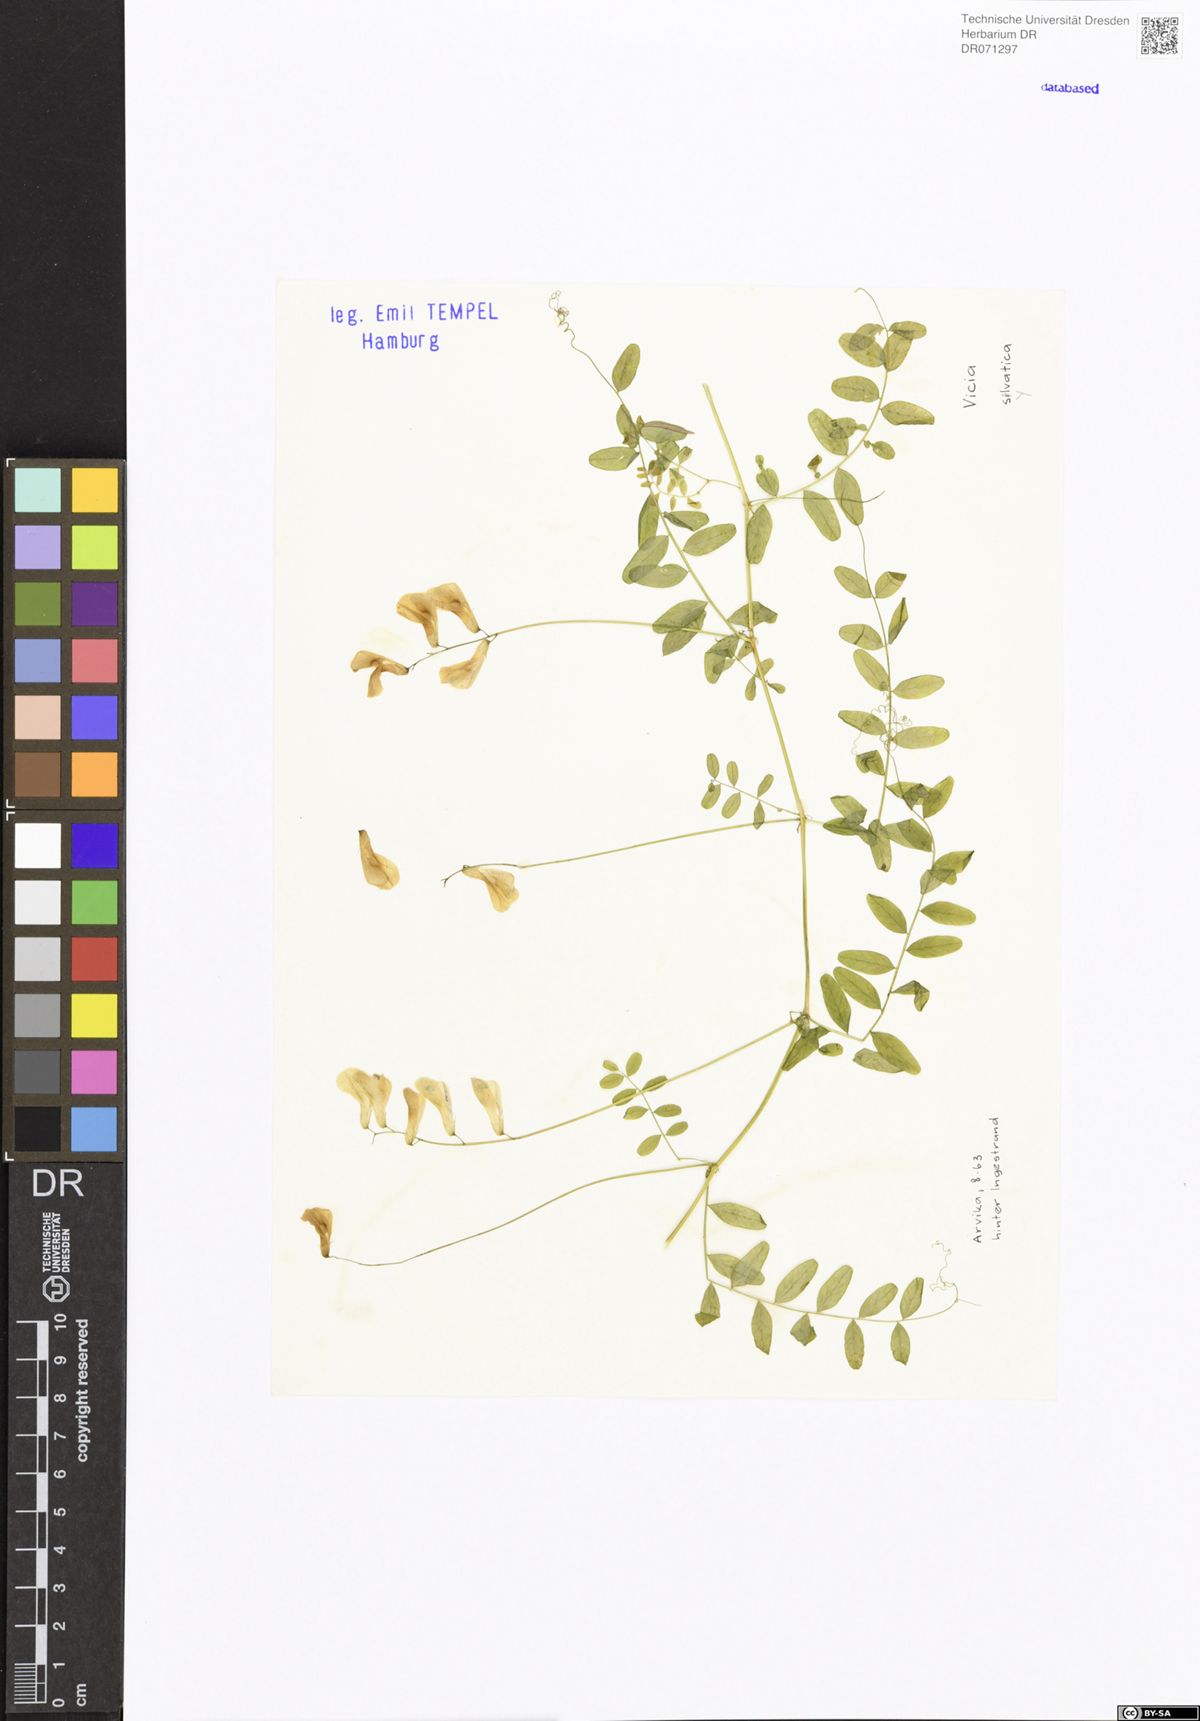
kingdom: Plantae
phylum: Tracheophyta
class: Magnoliopsida
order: Fabales
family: Fabaceae
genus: Vicia
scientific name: Vicia sylvatica
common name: Wood vetch
